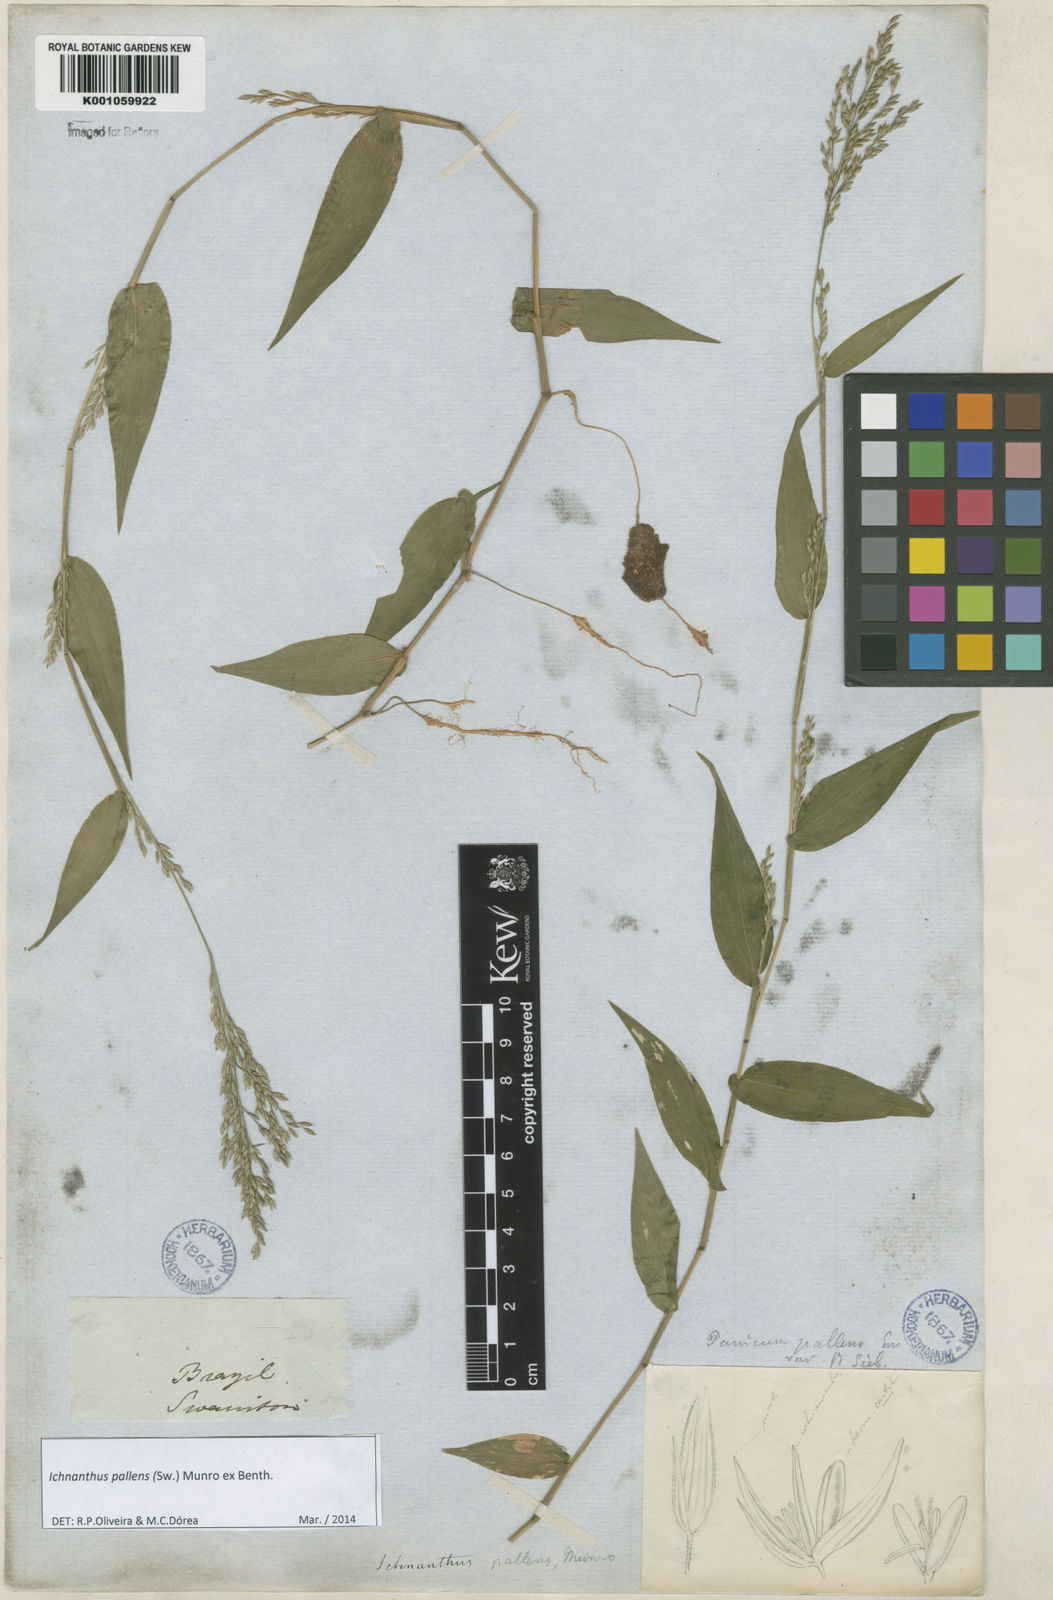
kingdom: Plantae
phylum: Tracheophyta
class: Liliopsida
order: Poales
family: Poaceae
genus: Ichnanthus
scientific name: Ichnanthus pallens
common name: Water grass
